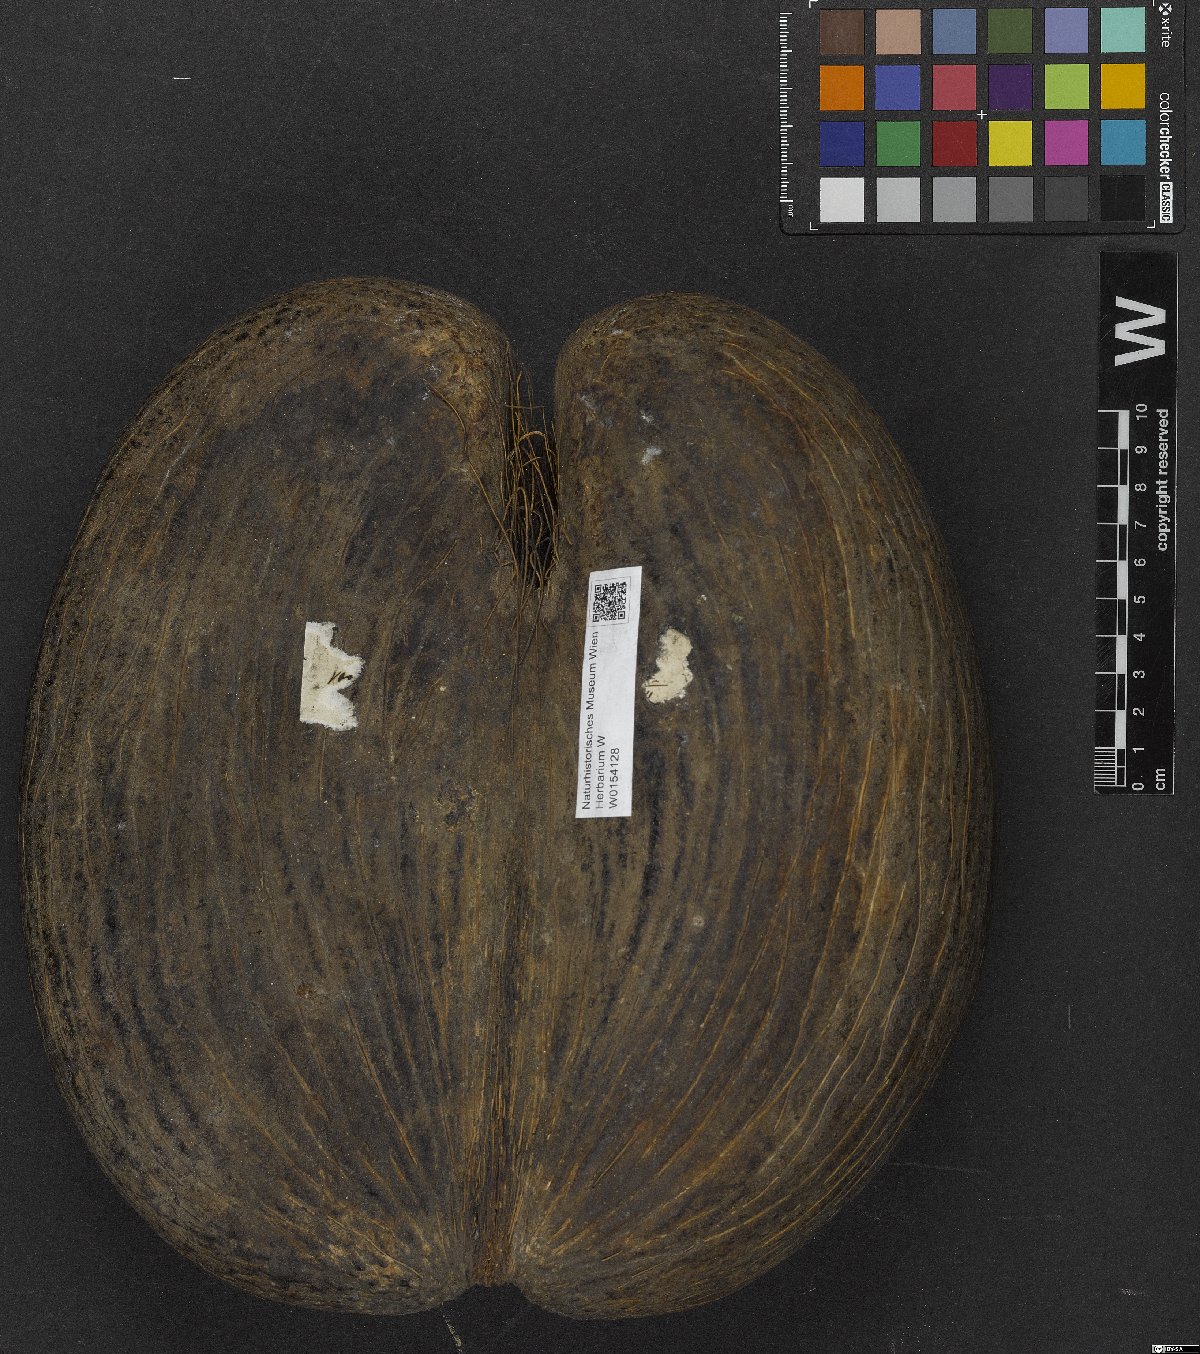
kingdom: Plantae
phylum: Tracheophyta
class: Liliopsida
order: Arecales
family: Arecaceae
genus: Lodoicea
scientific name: Lodoicea maldivica
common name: Double coconut palm
